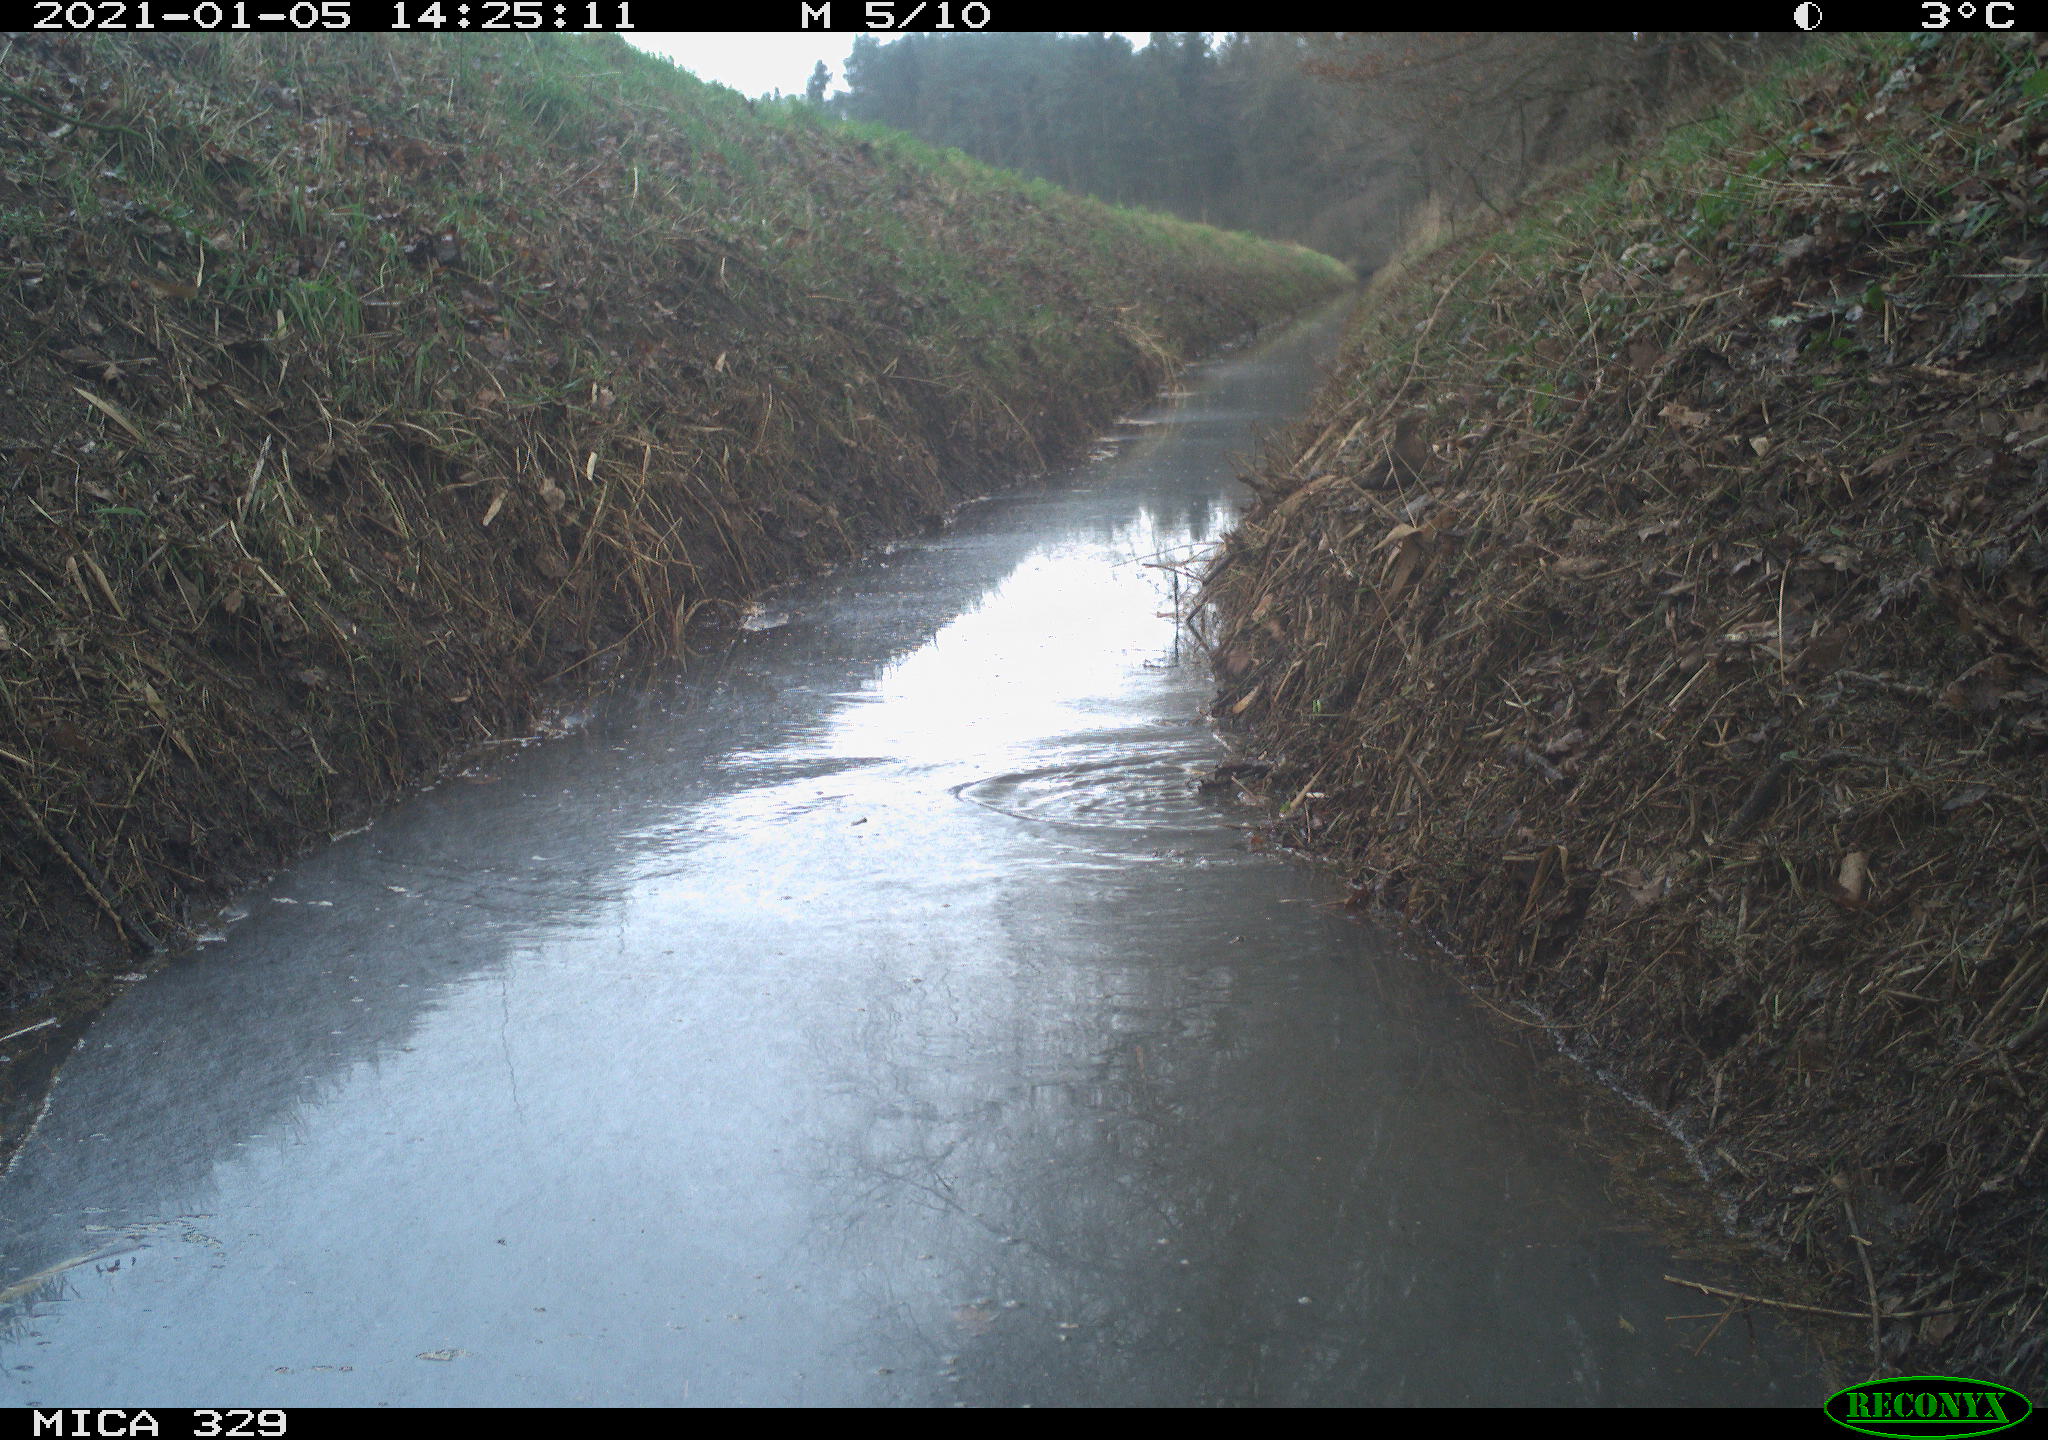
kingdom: Animalia
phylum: Chordata
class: Aves
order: Passeriformes
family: Turdidae
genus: Turdus
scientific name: Turdus philomelos
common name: Song thrush
